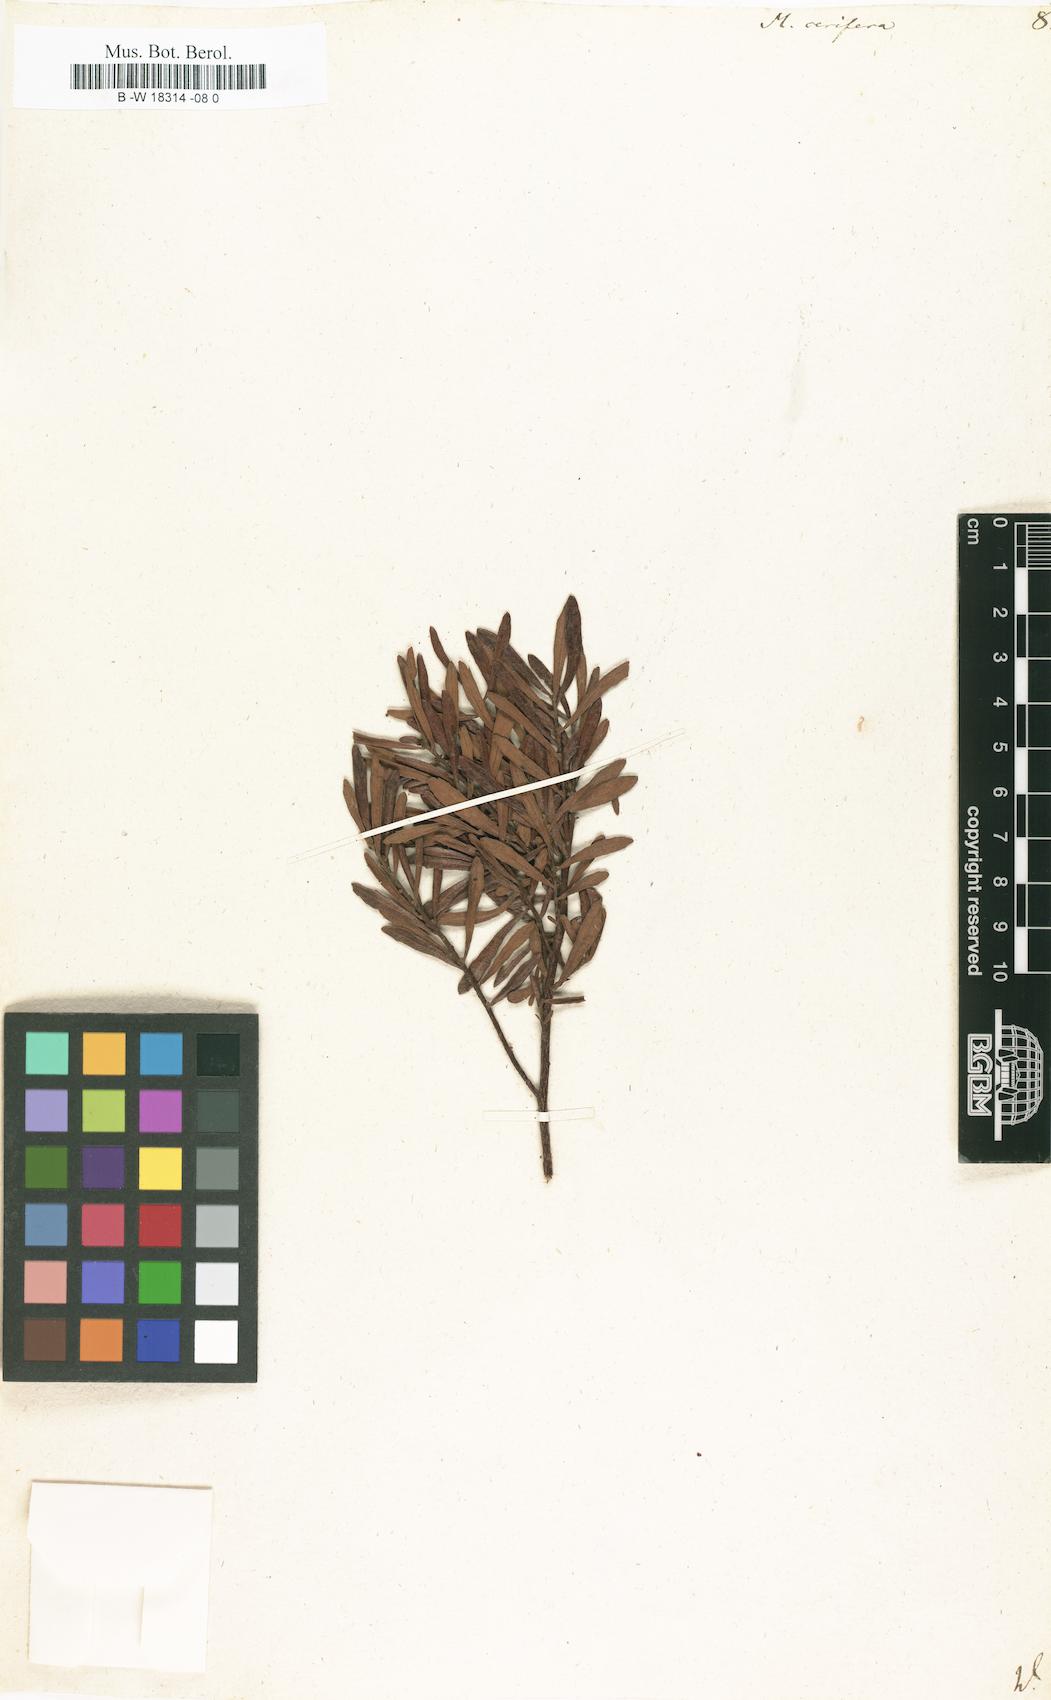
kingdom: Plantae
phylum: Tracheophyta
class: Magnoliopsida
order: Fagales
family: Myricaceae
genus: Morella
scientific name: Morella cerifera
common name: Wax myrtle
